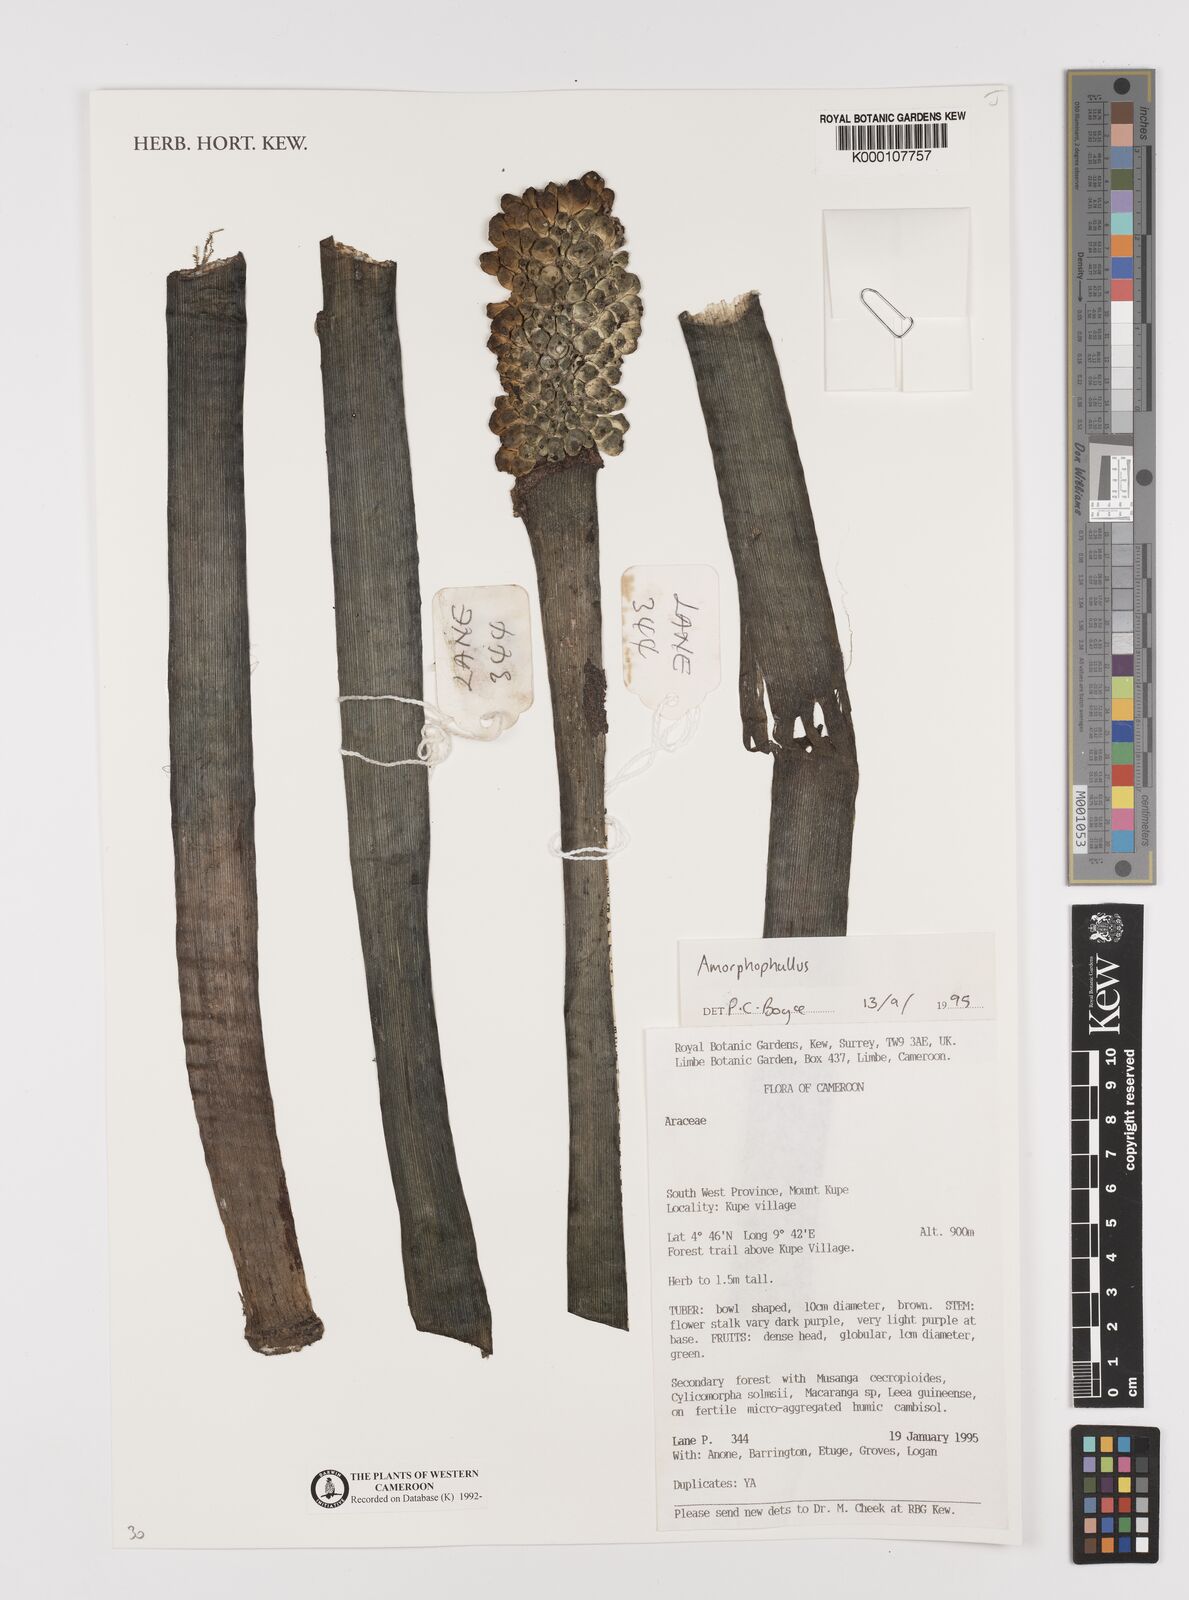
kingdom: Plantae
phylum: Tracheophyta
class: Liliopsida
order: Alismatales
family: Araceae
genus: Amorphophallus
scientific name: Amorphophallus
